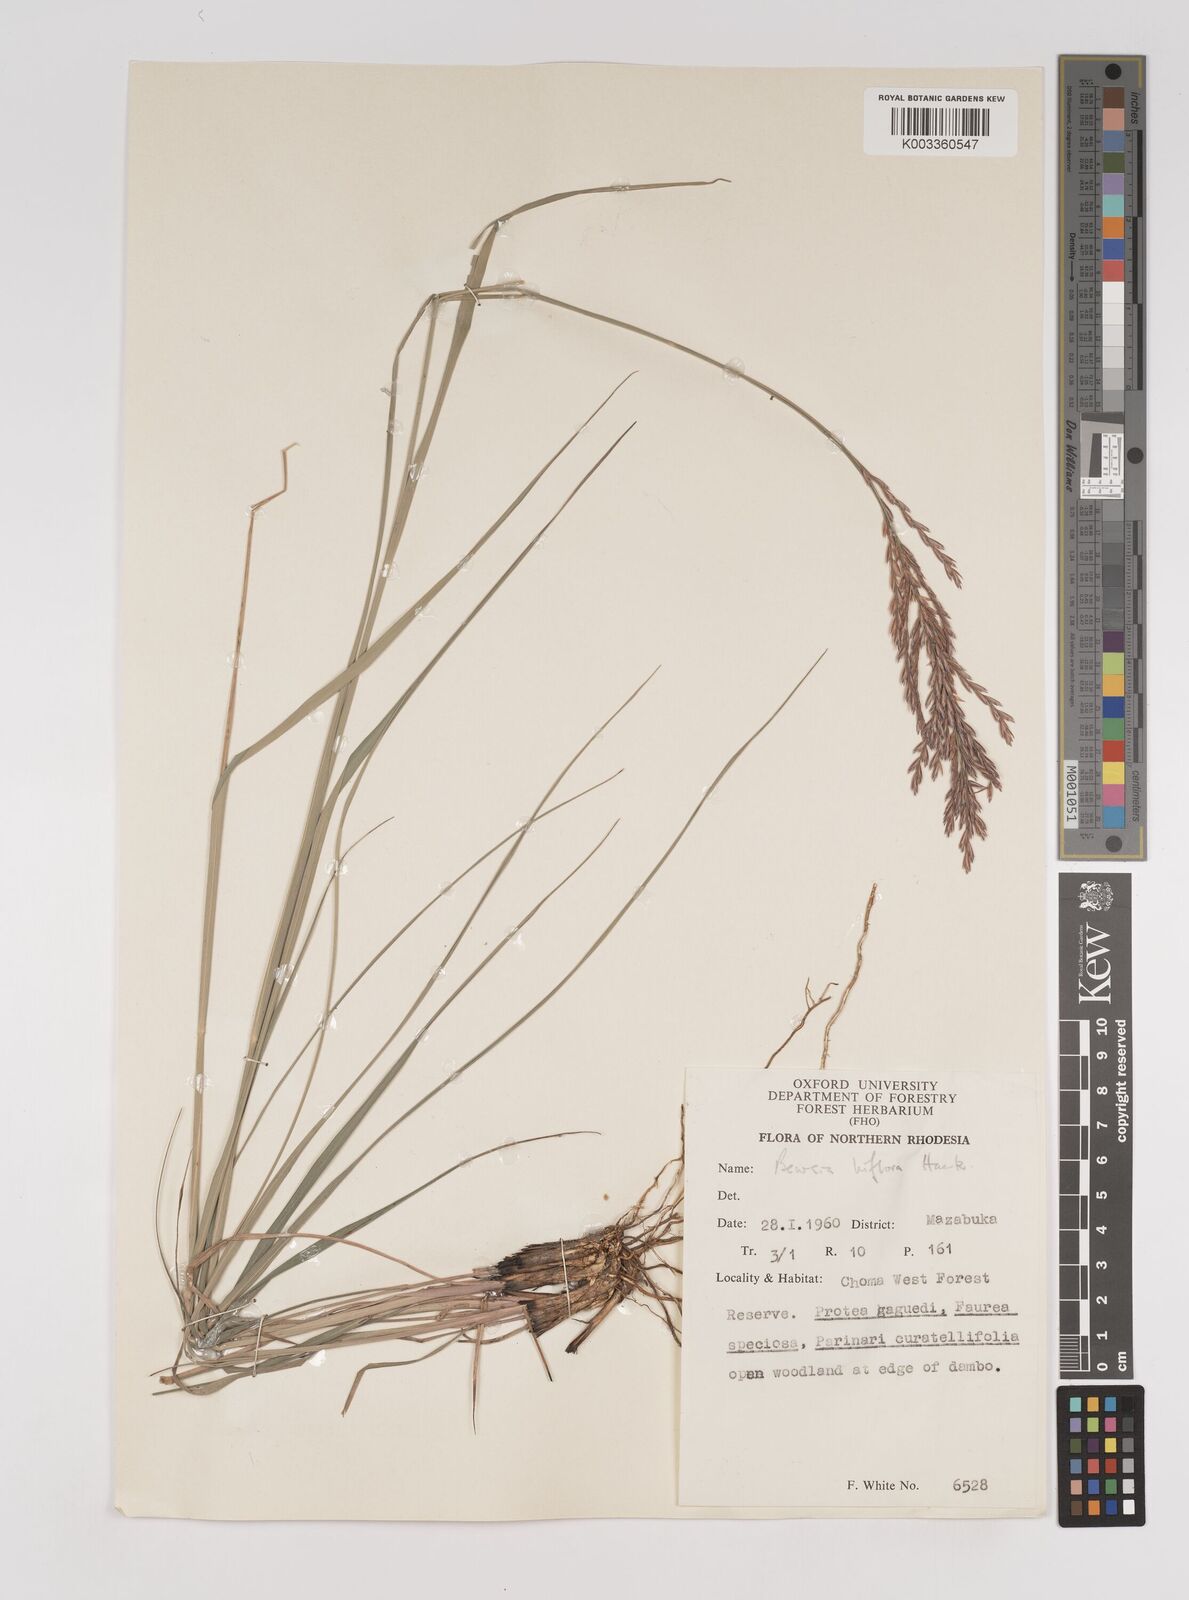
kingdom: Plantae
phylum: Tracheophyta
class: Liliopsida
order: Poales
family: Poaceae
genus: Bewsia
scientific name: Bewsia biflora
